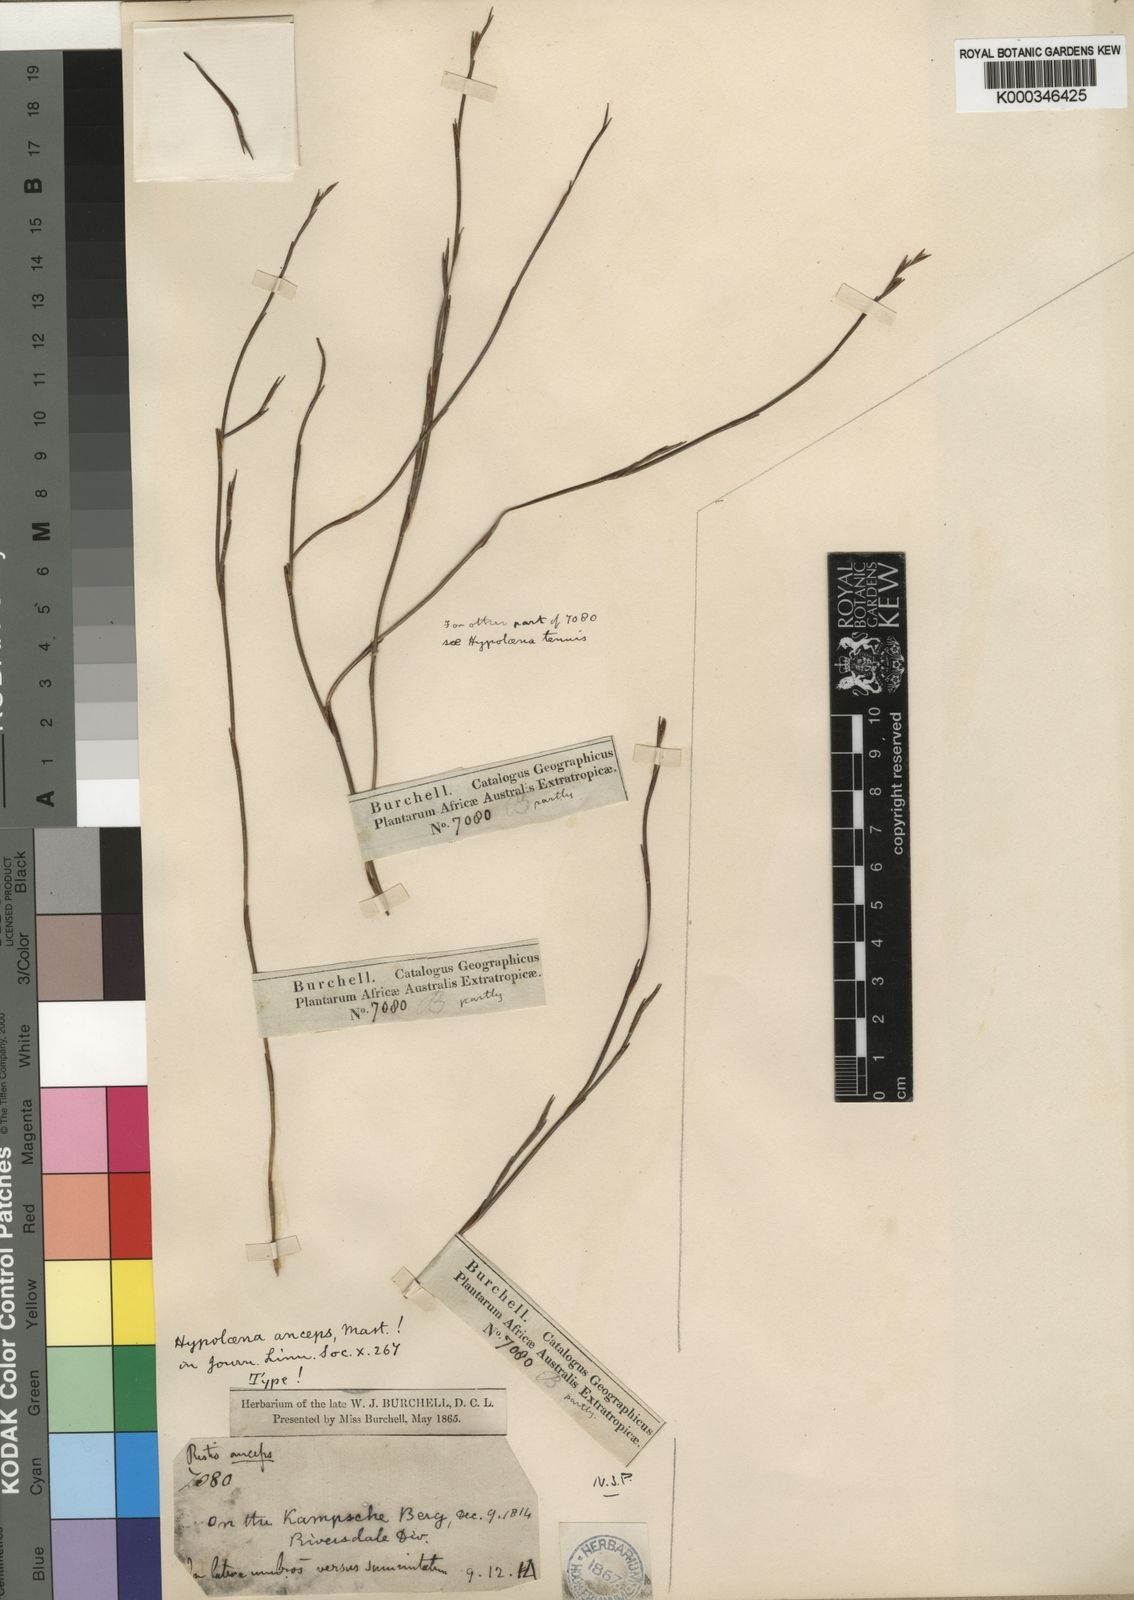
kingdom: Plantae
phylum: Tracheophyta
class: Liliopsida
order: Poales
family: Restionaceae
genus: Platycaulos
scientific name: Platycaulos anceps
